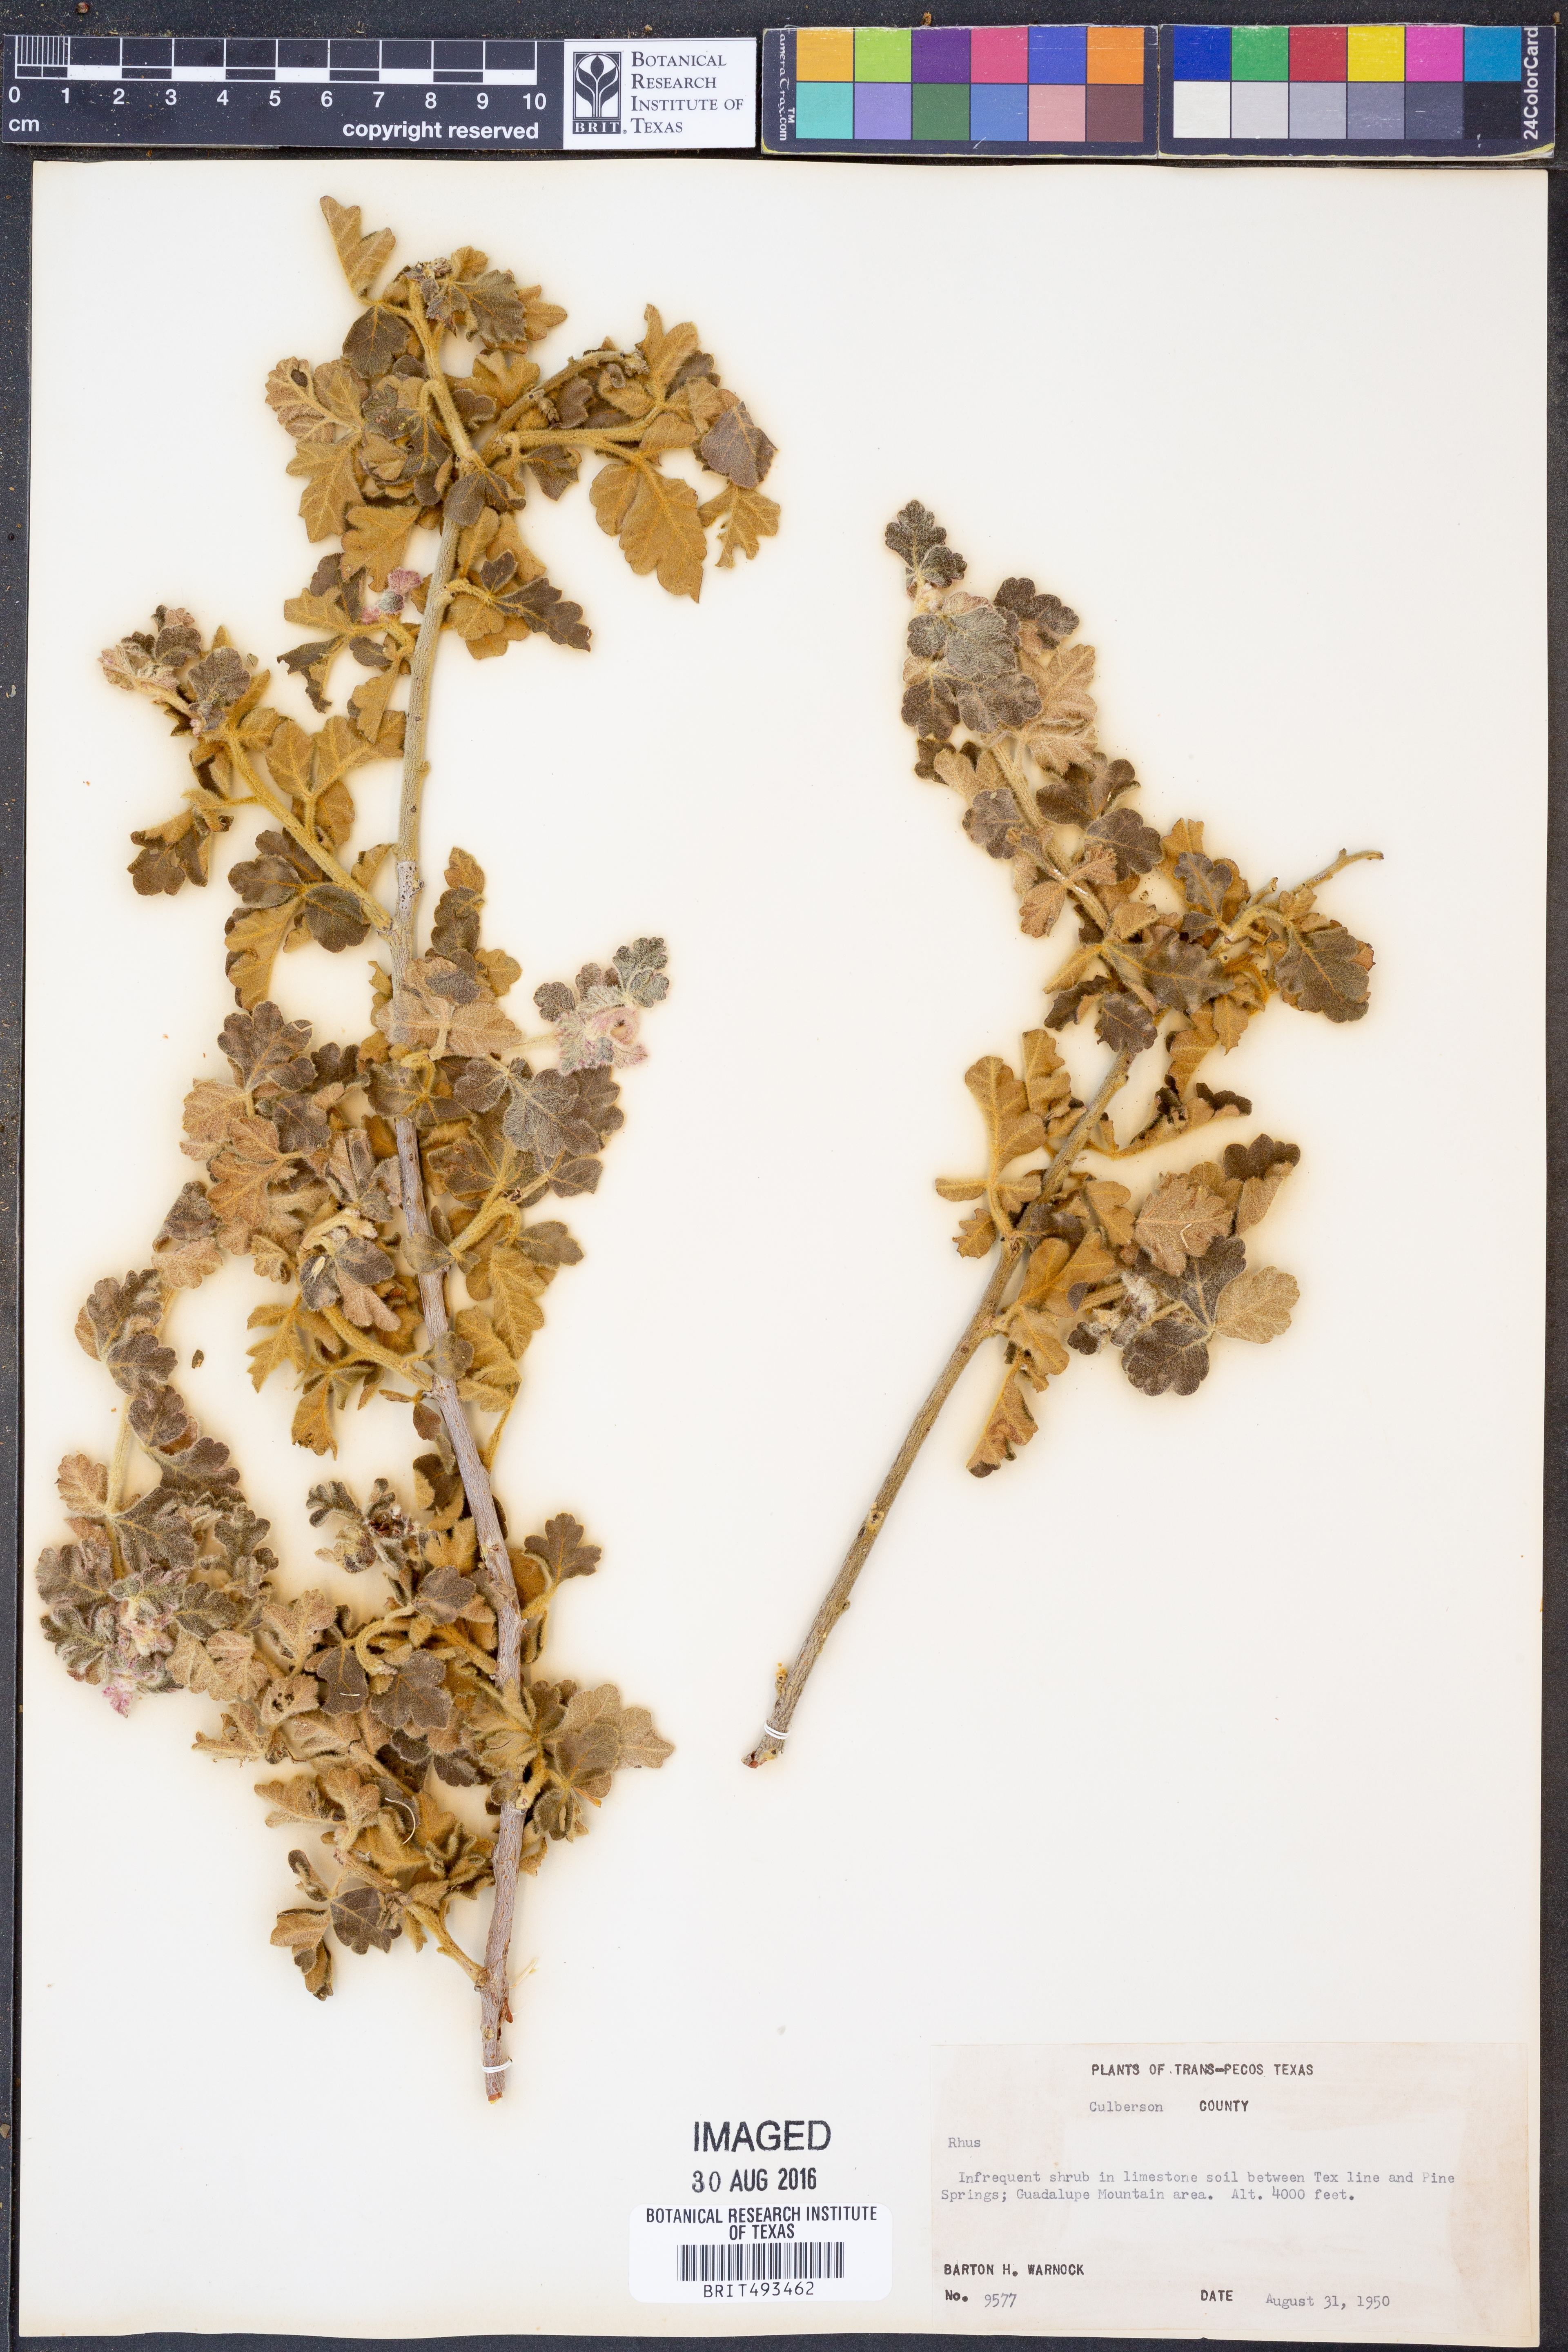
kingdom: Plantae
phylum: Tracheophyta
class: Magnoliopsida
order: Sapindales
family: Anacardiaceae
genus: Rhus
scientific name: Rhus
